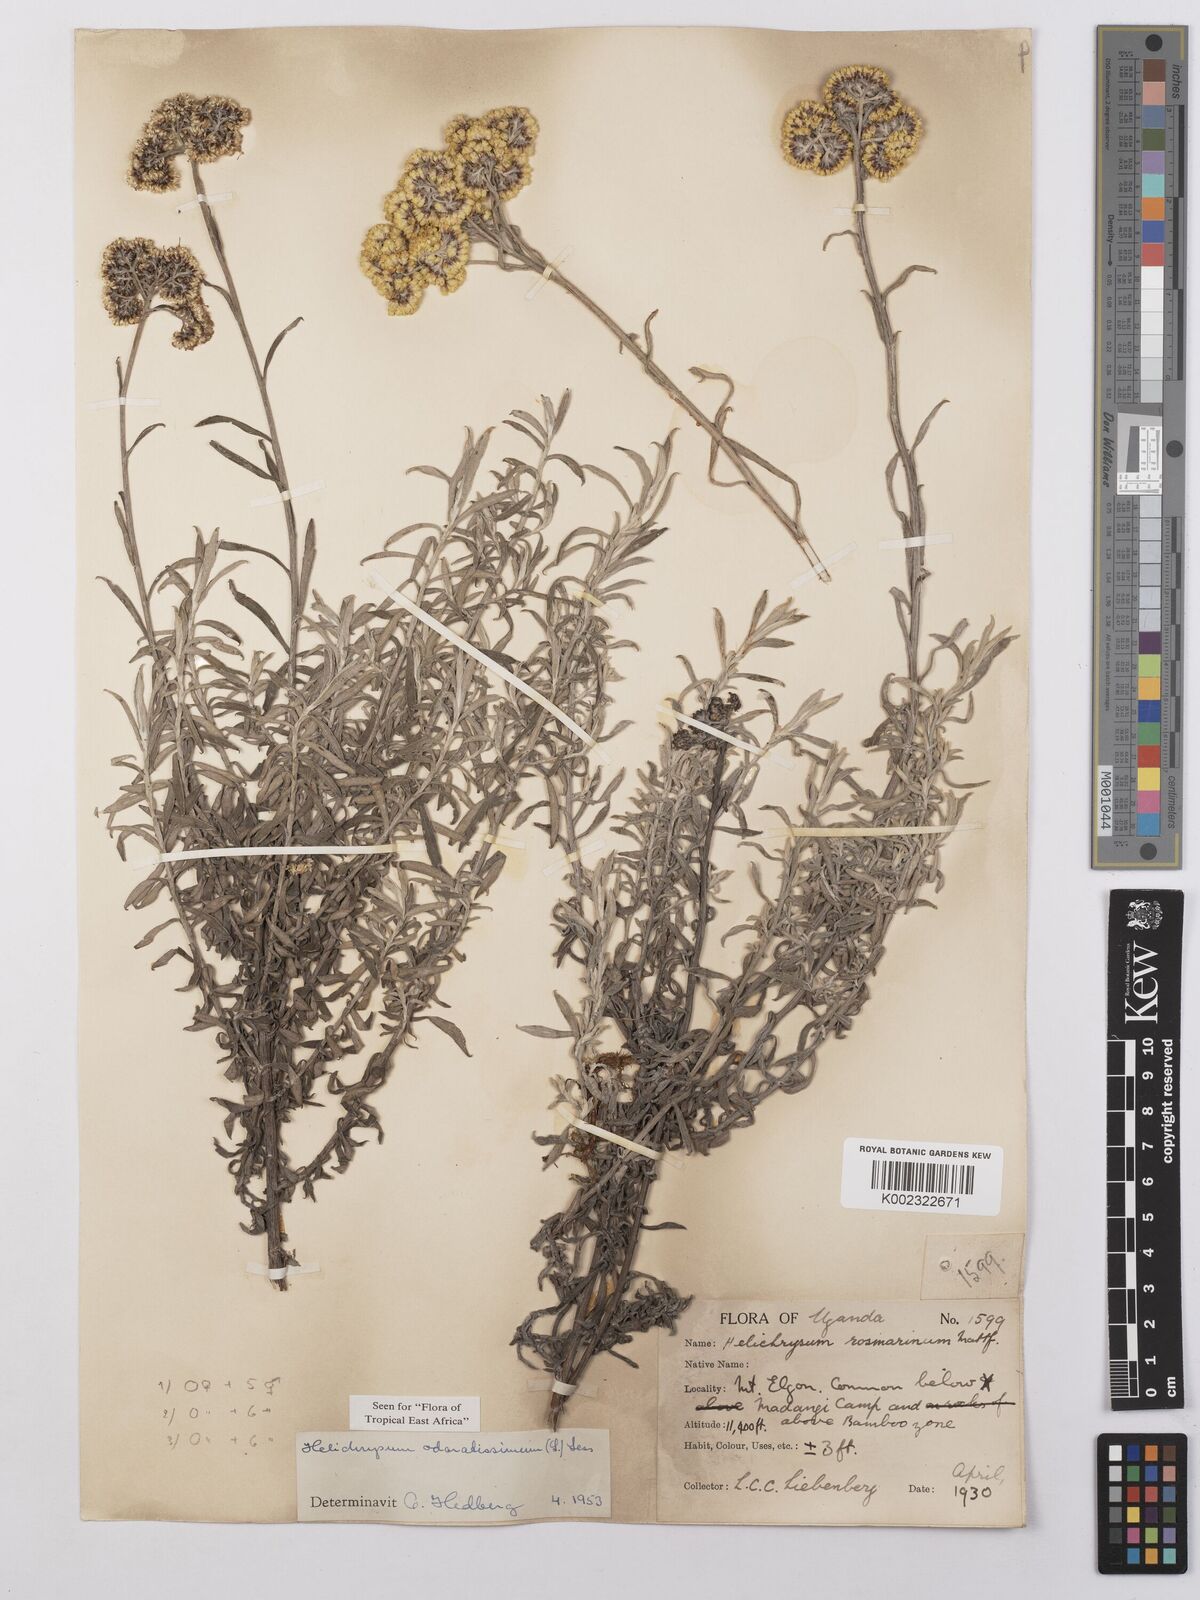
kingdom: Plantae
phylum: Tracheophyta
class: Magnoliopsida
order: Asterales
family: Asteraceae
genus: Helichrysum
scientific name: Helichrysum odoratissimum
